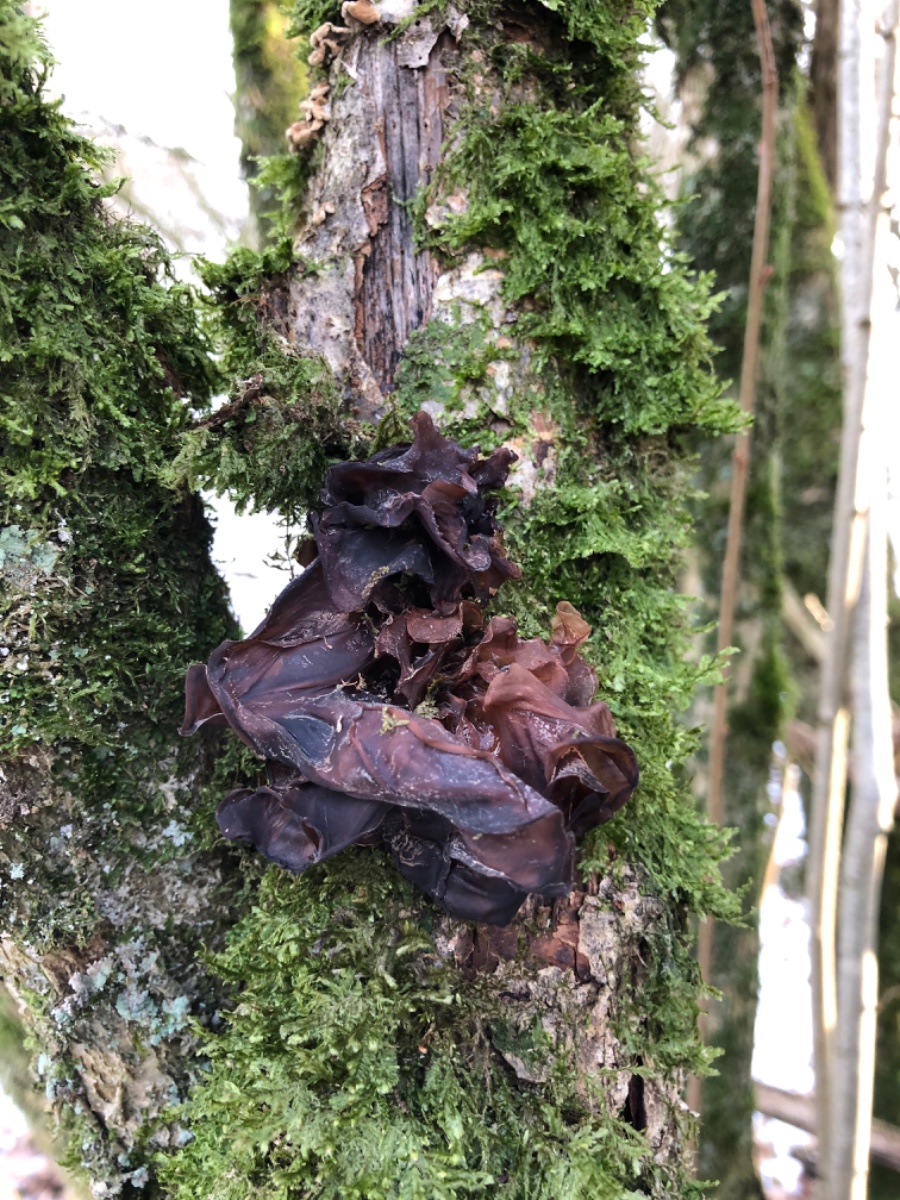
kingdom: Fungi
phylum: Basidiomycota
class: Tremellomycetes
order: Tremellales
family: Tremellaceae
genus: Phaeotremella
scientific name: Phaeotremella frondosa
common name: kæmpe-bævresvamp
